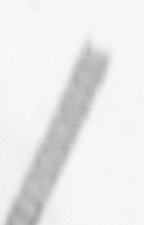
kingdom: Chromista
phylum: Ochrophyta
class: Bacillariophyceae
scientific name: Bacillariophyceae
